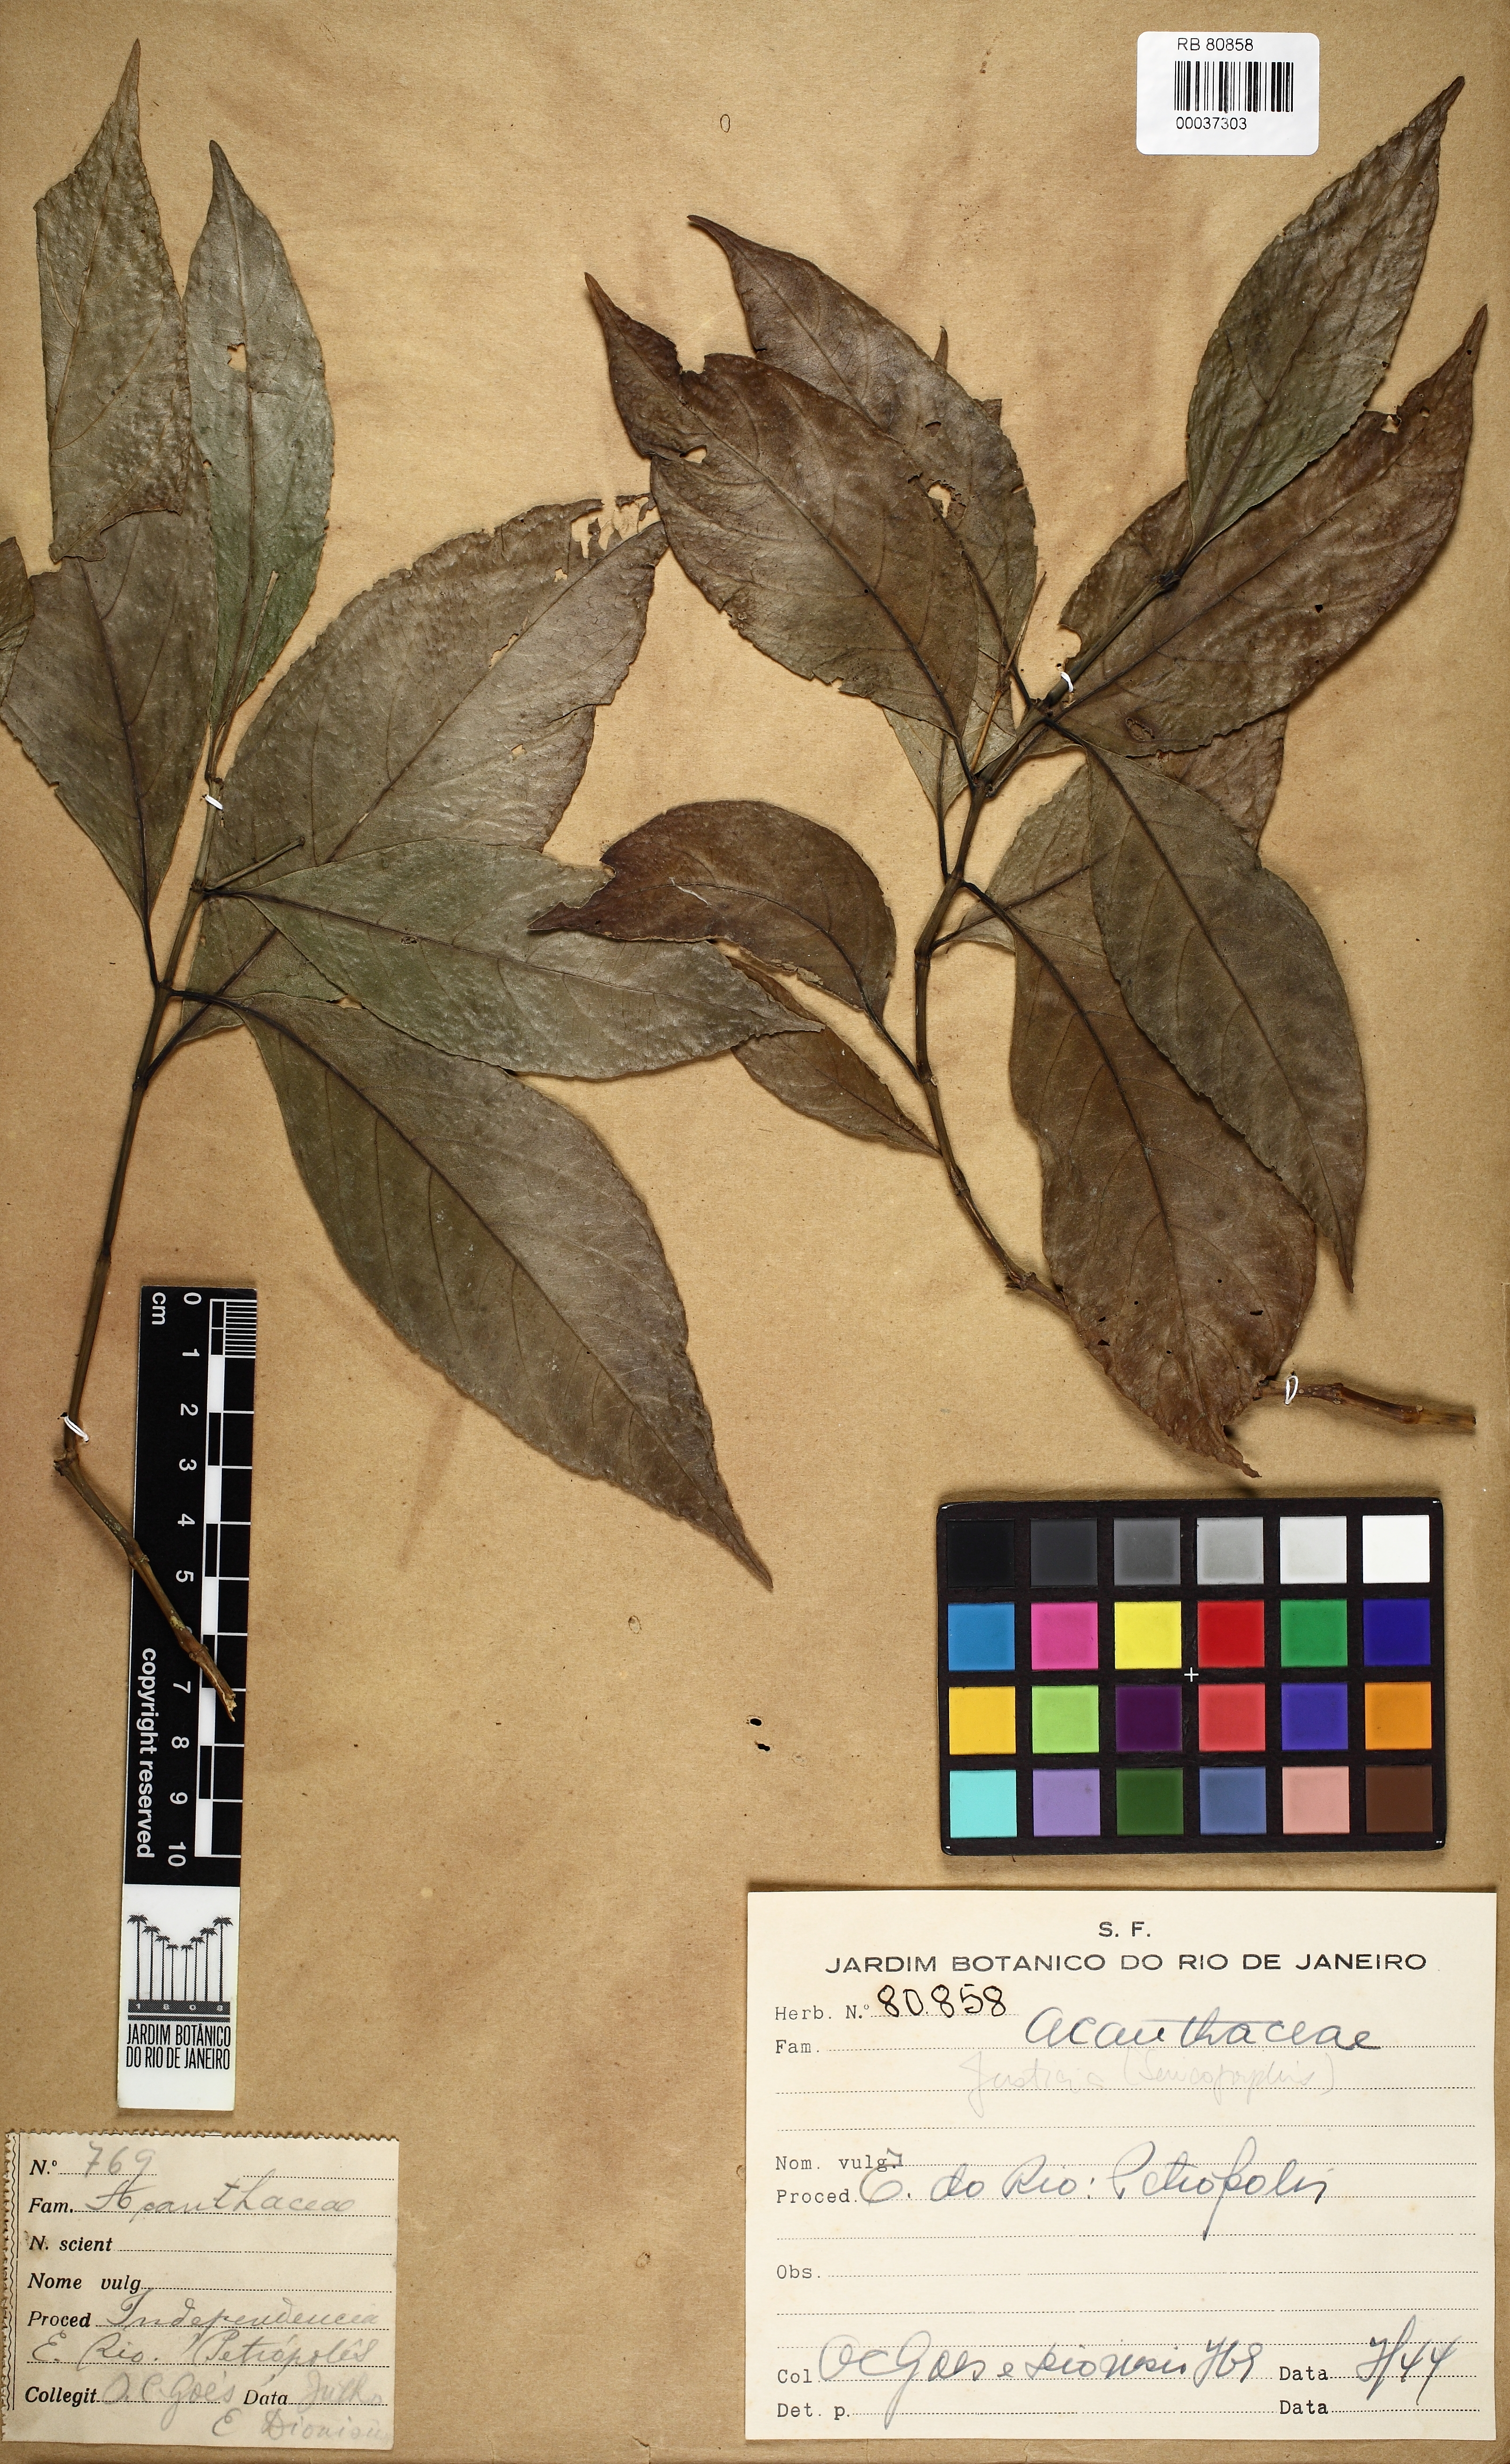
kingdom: Plantae
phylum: Tracheophyta
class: Magnoliopsida
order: Lamiales
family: Acanthaceae
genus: Justicia
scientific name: Justicia
